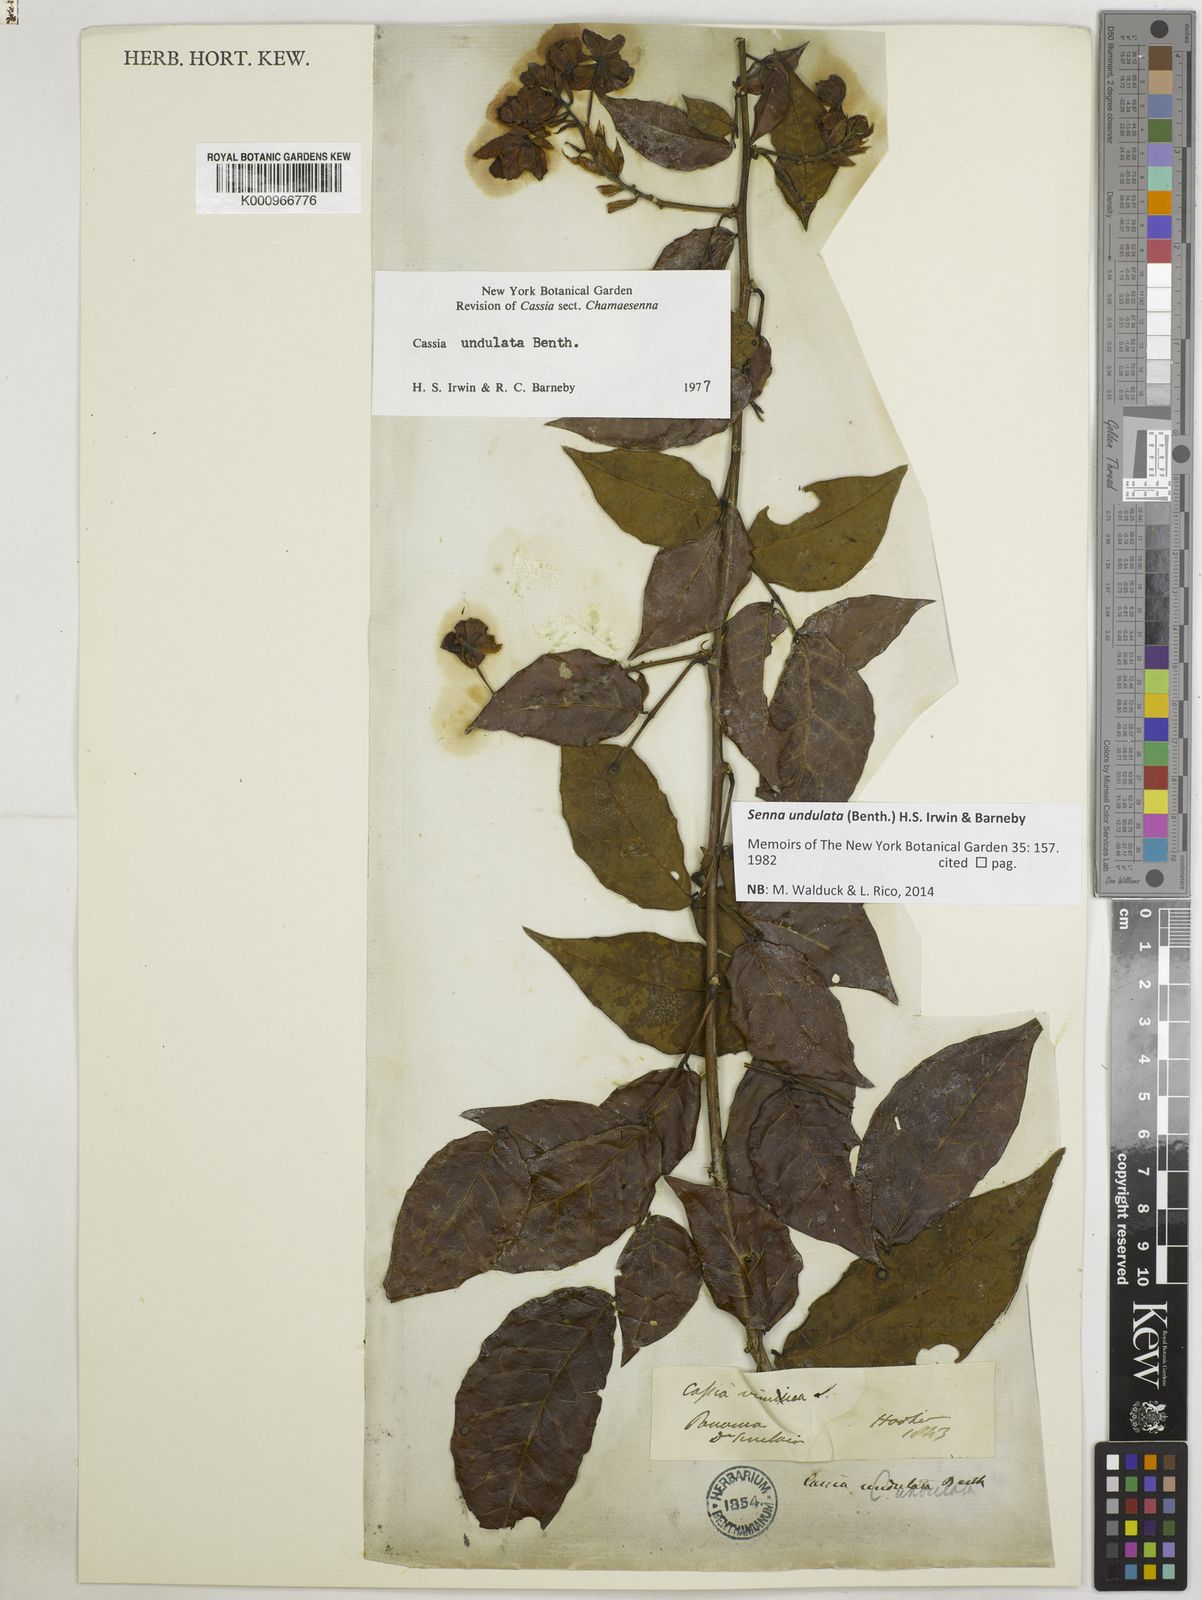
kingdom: Plantae
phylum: Tracheophyta
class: Magnoliopsida
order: Fabales
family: Fabaceae
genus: Senna
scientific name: Senna undulata
